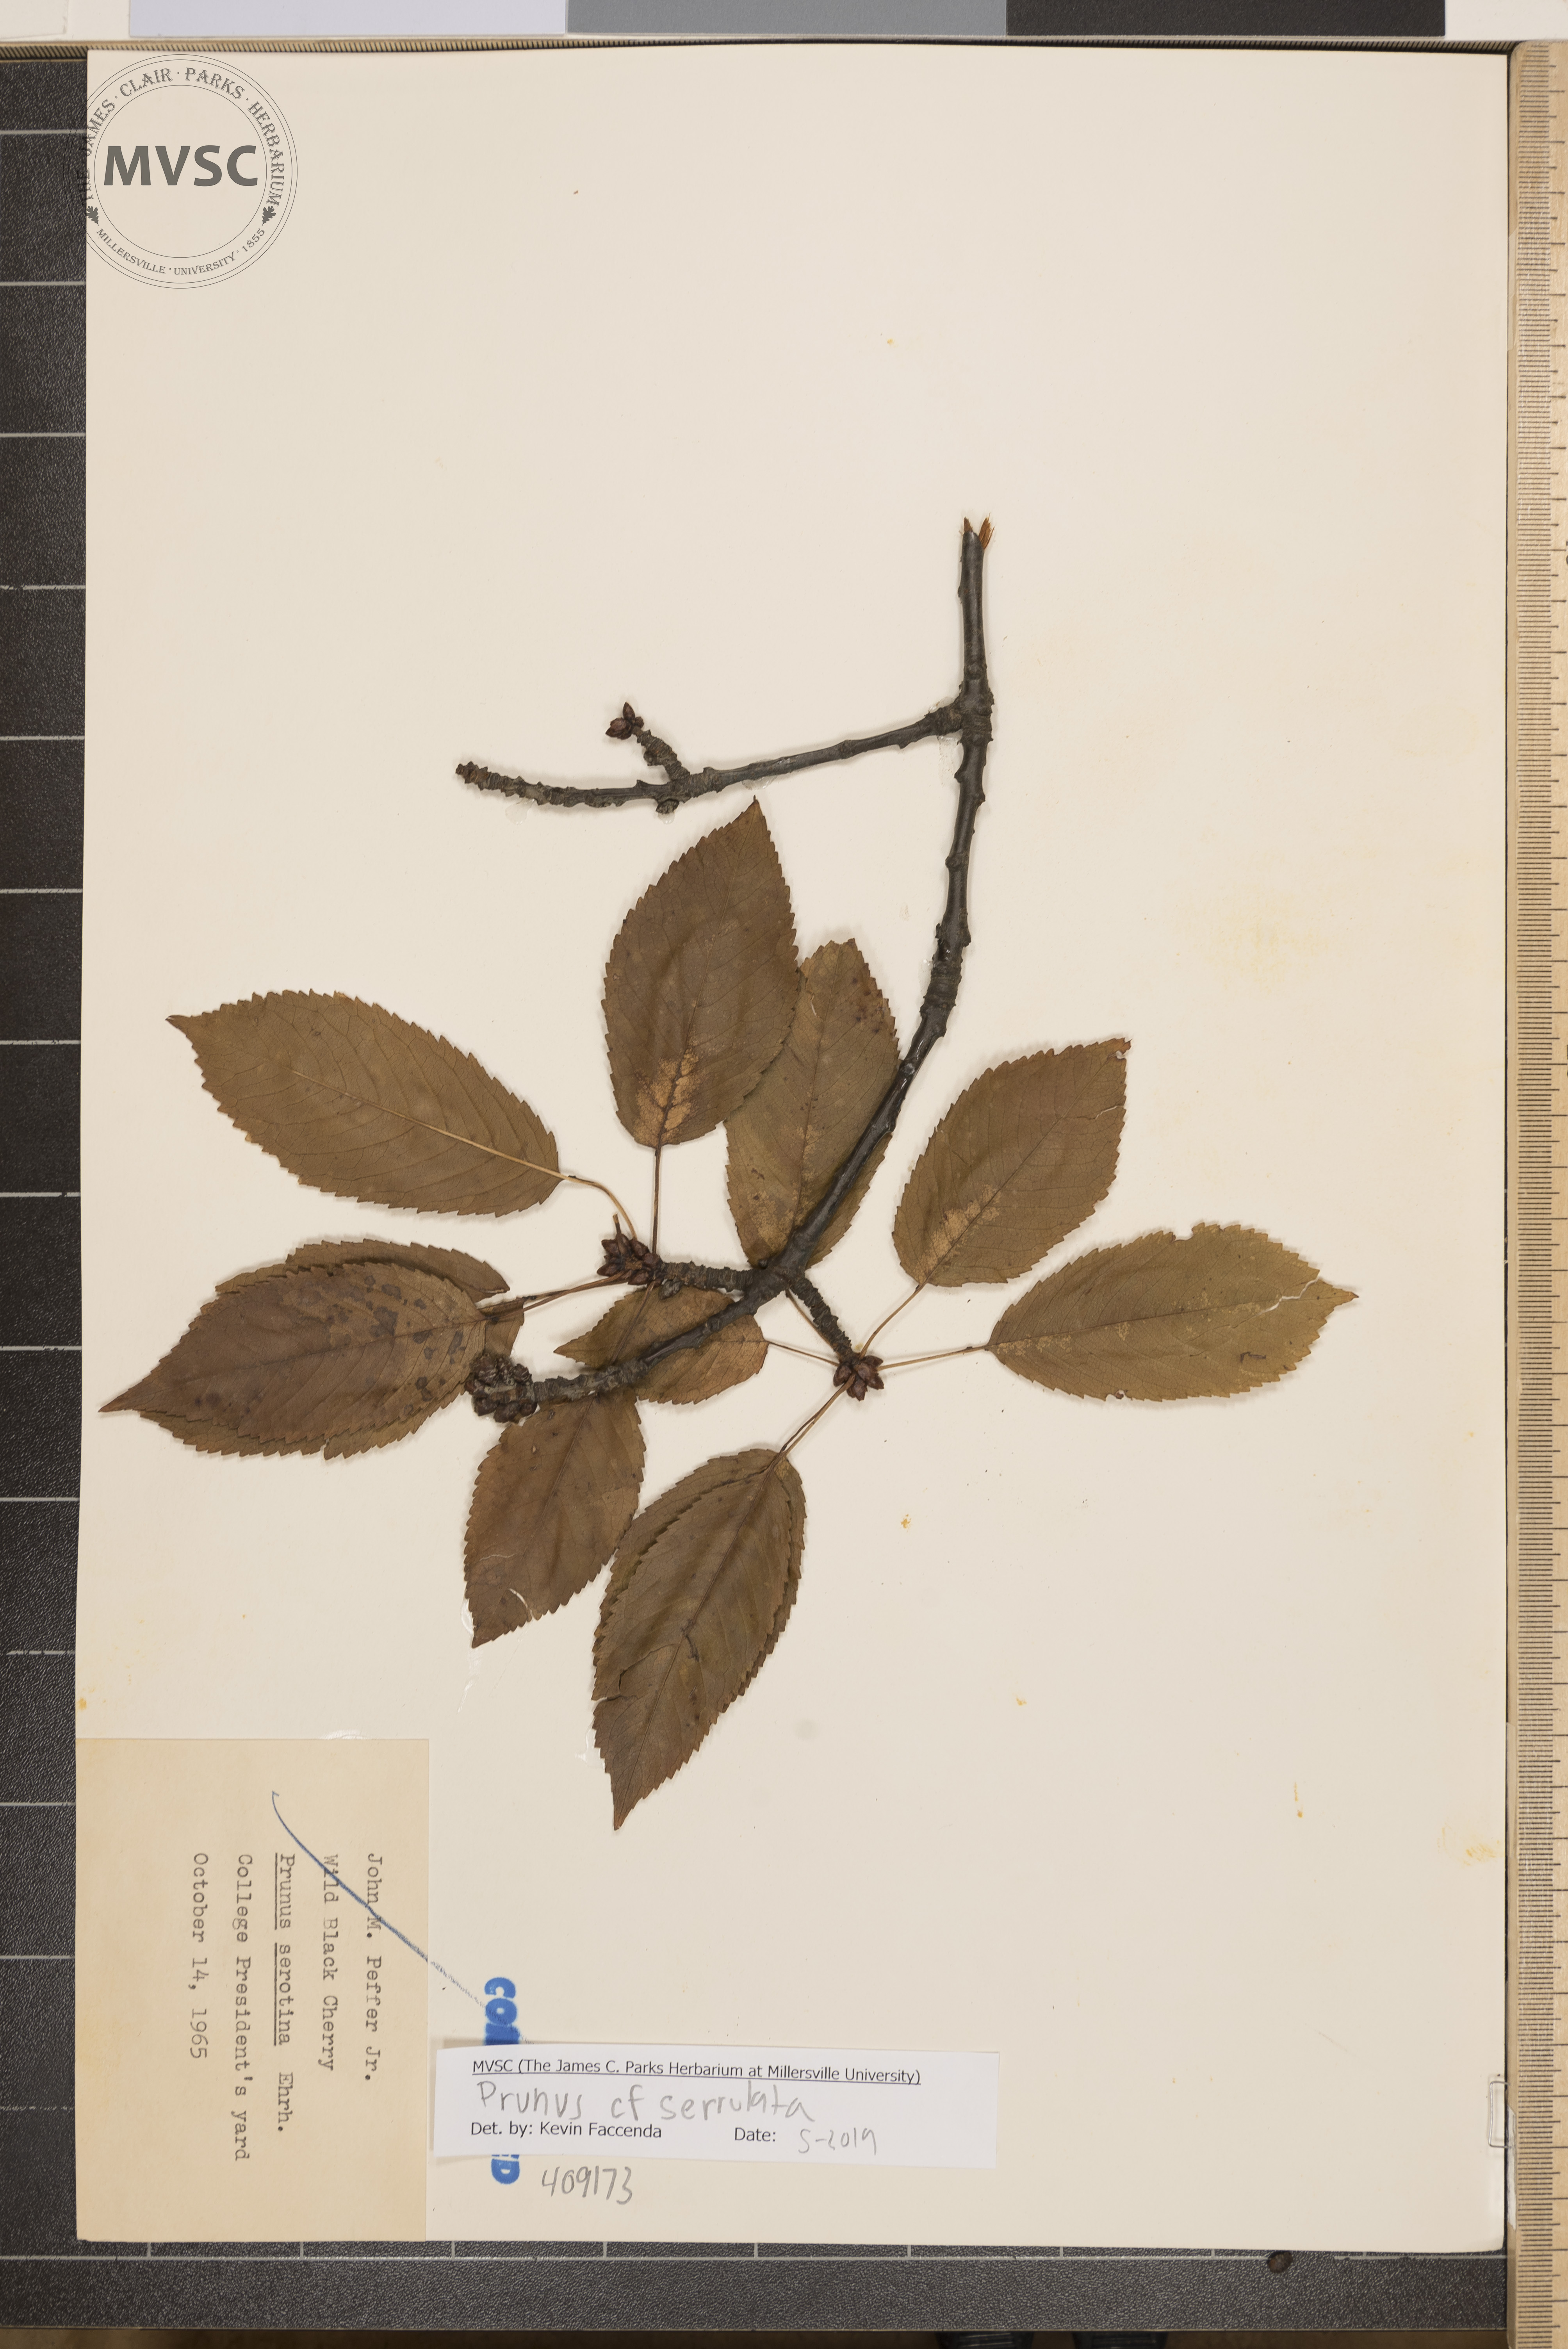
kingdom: Plantae
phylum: Tracheophyta
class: Magnoliopsida
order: Rosales
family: Rosaceae
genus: Prunus
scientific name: Prunus serrulata
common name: Japanese cherry
